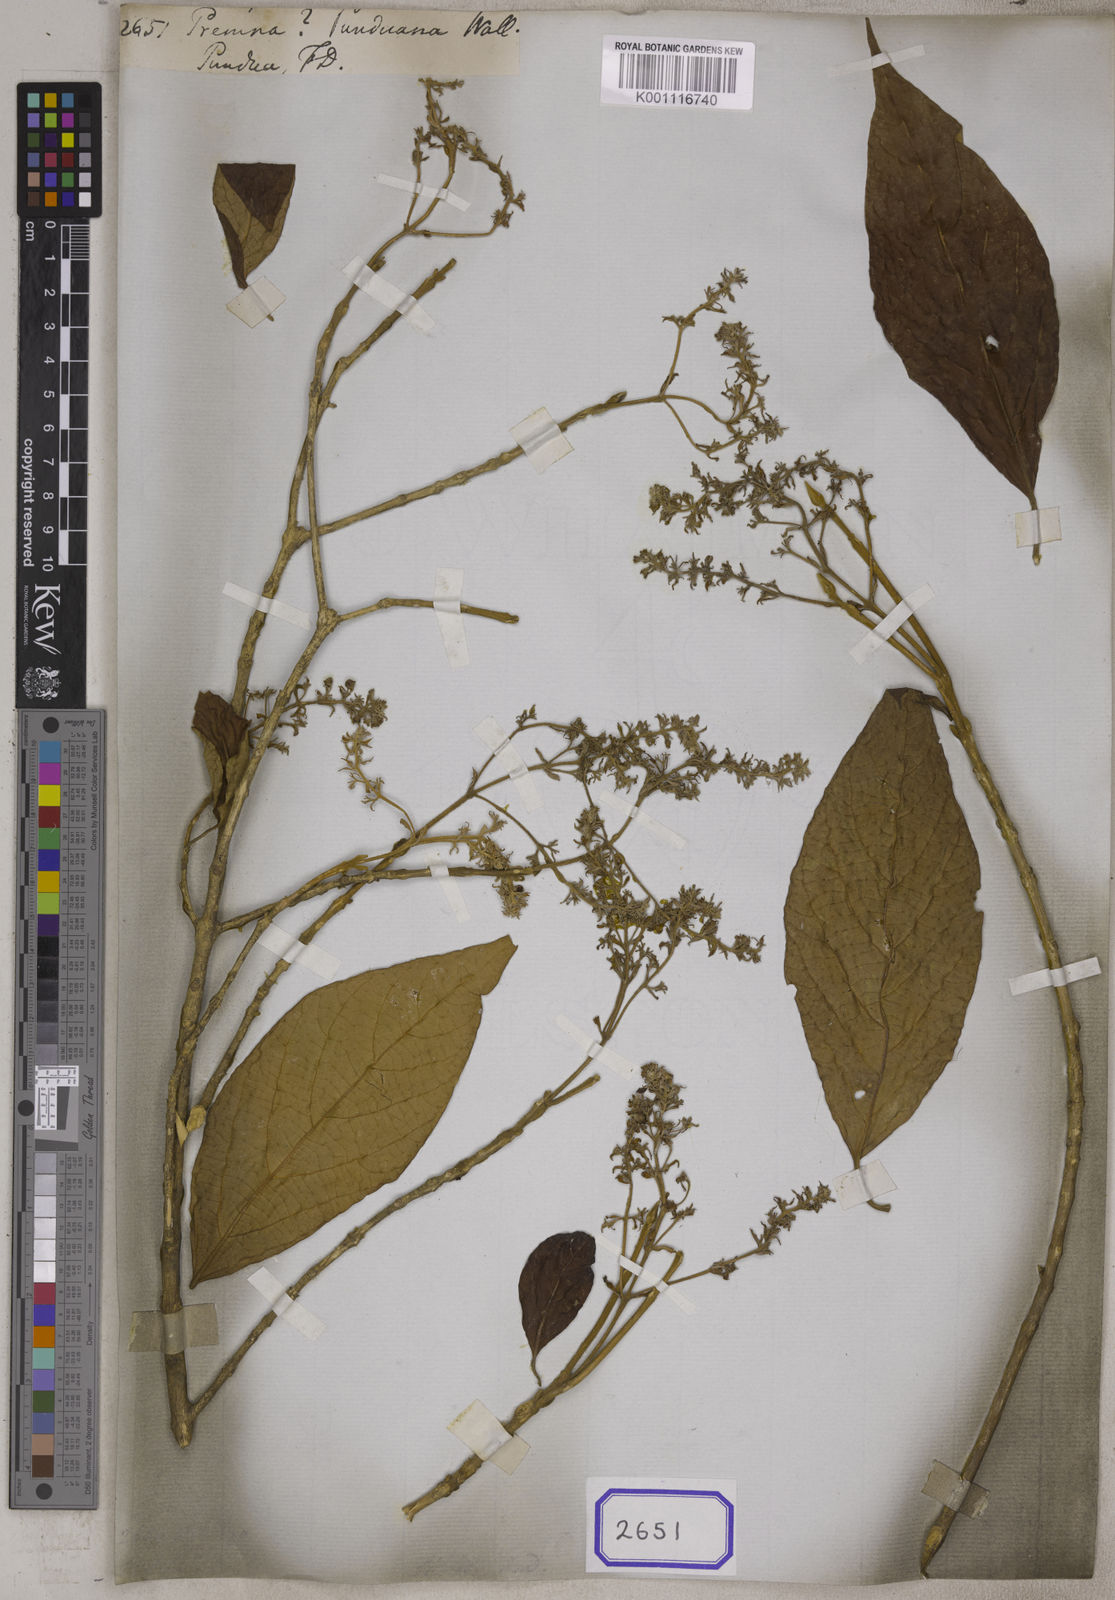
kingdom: Plantae
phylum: Tracheophyta
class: Magnoliopsida
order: Lamiales
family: Lamiaceae
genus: Premna
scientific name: Premna
